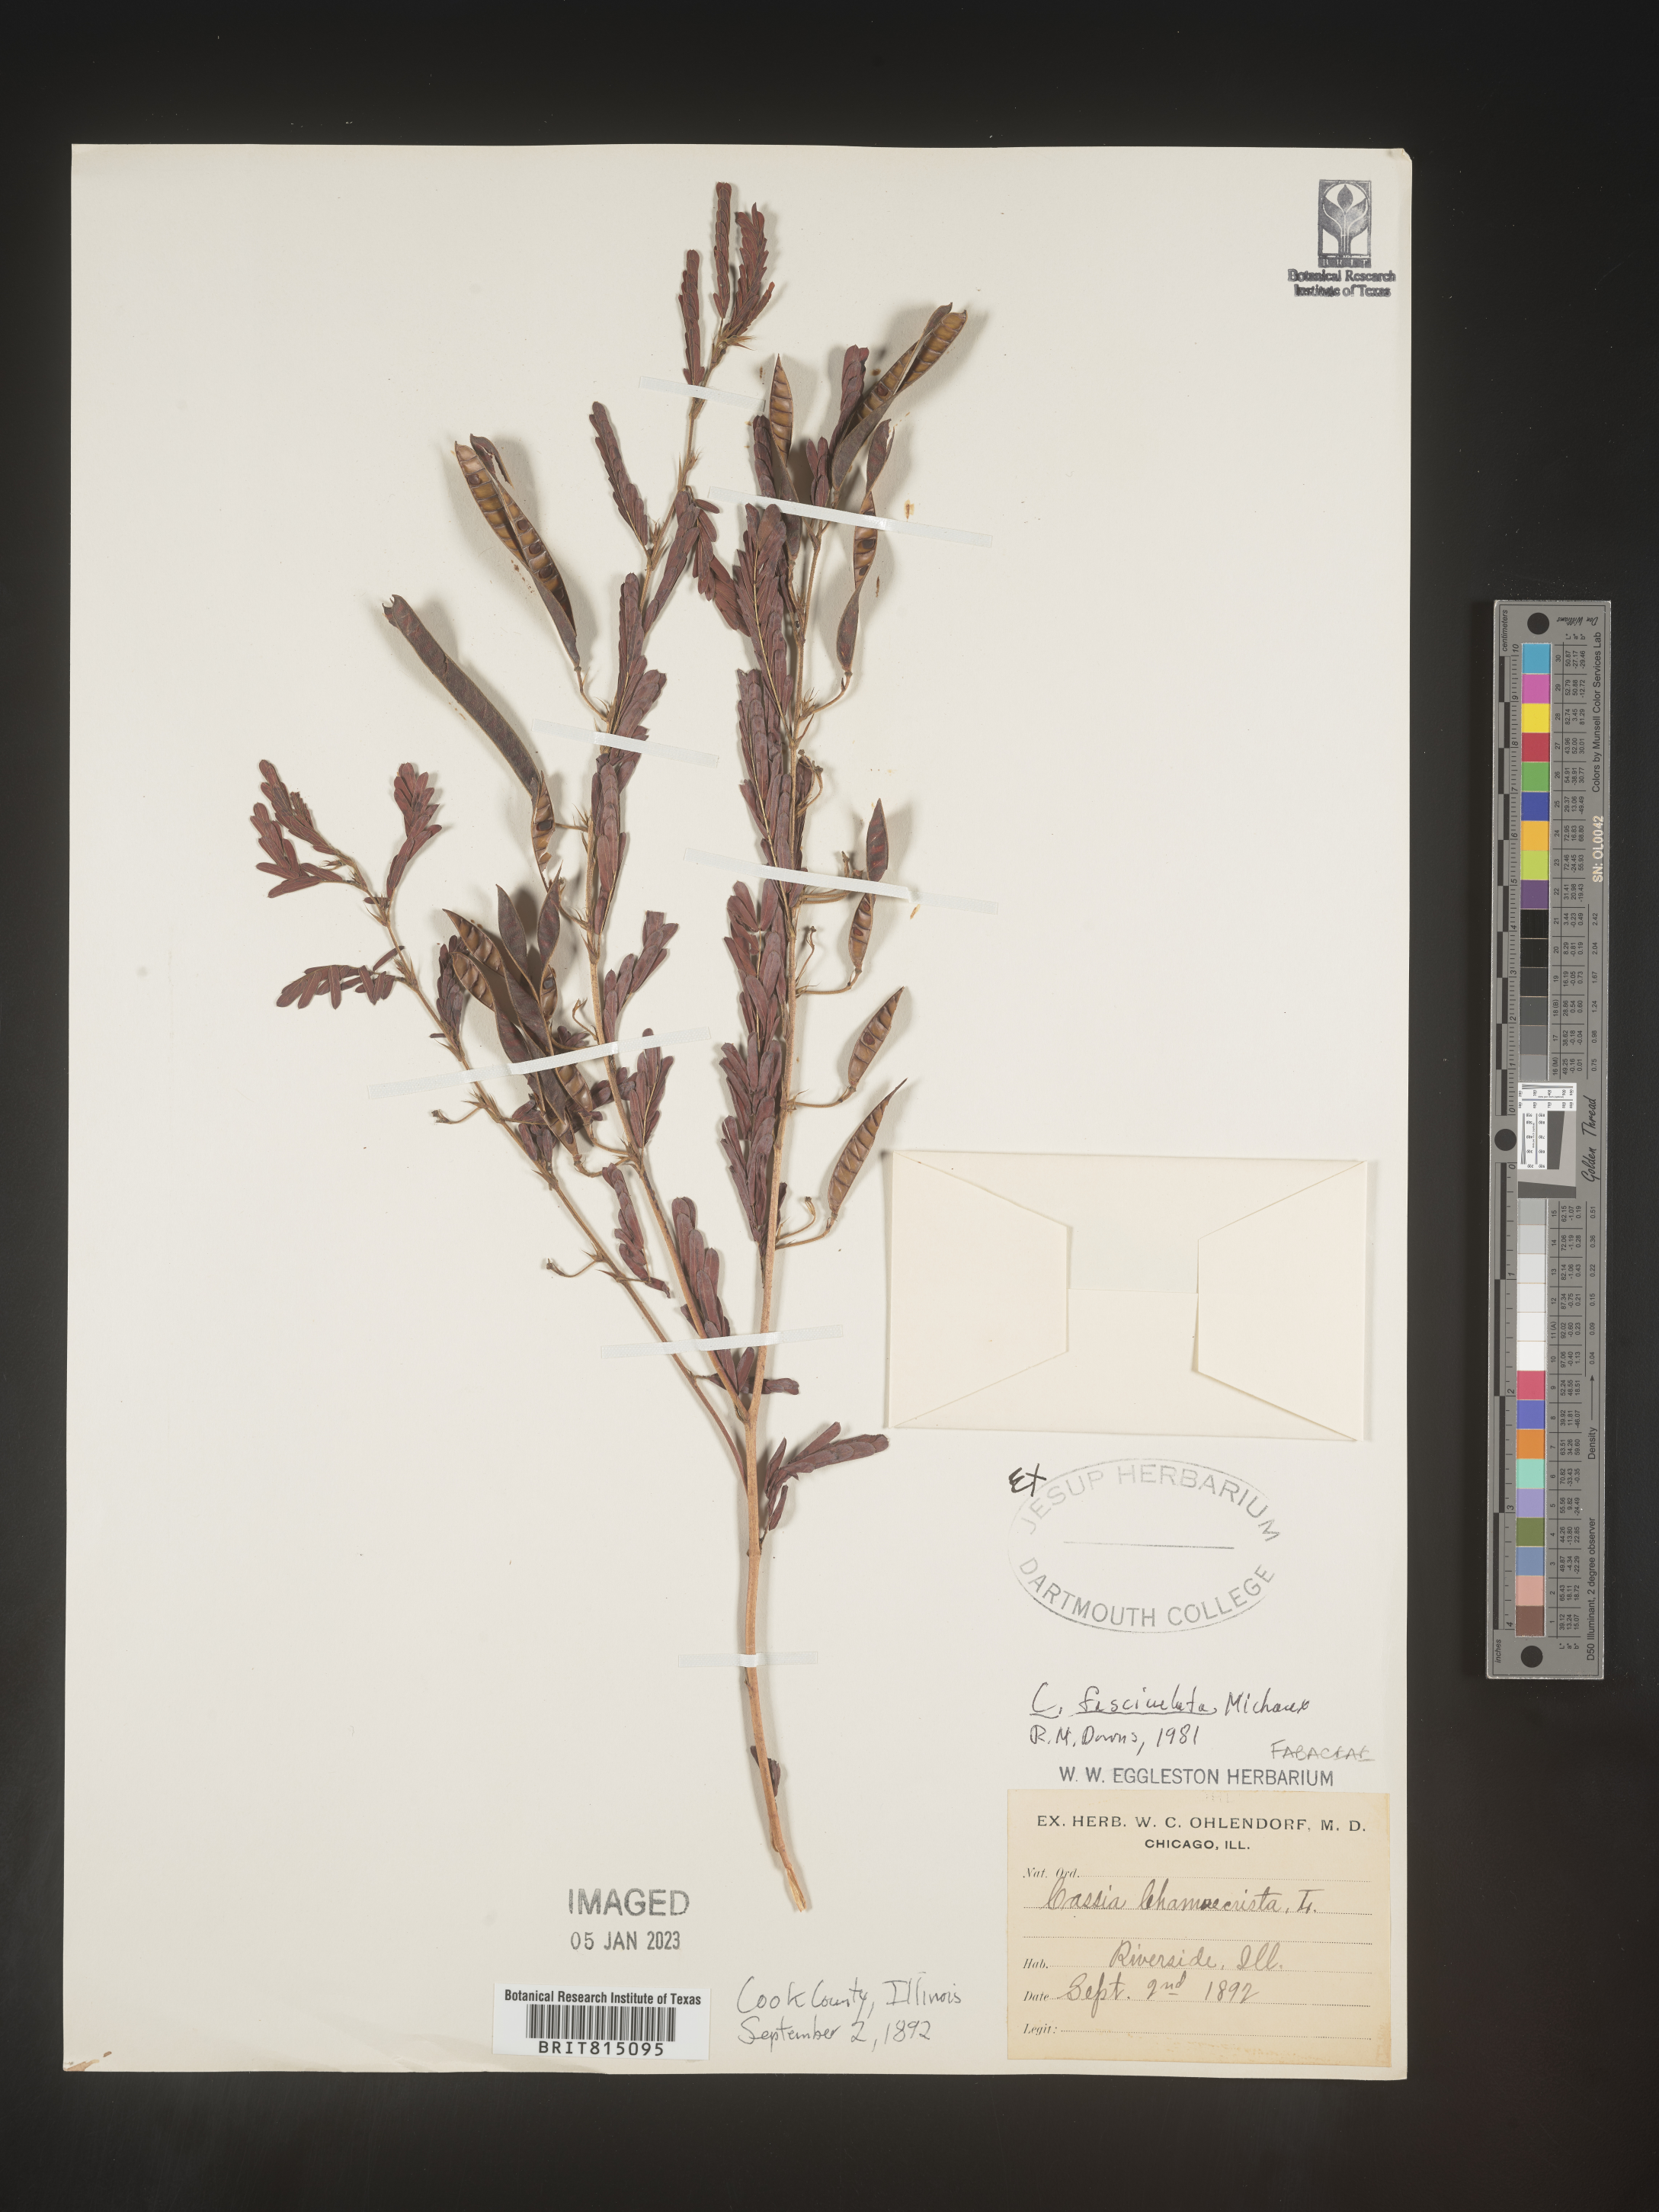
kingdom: Plantae
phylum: Tracheophyta
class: Magnoliopsida
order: Fabales
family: Fabaceae
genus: Chamaecrista
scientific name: Chamaecrista fasciculata
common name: Golden cassia
